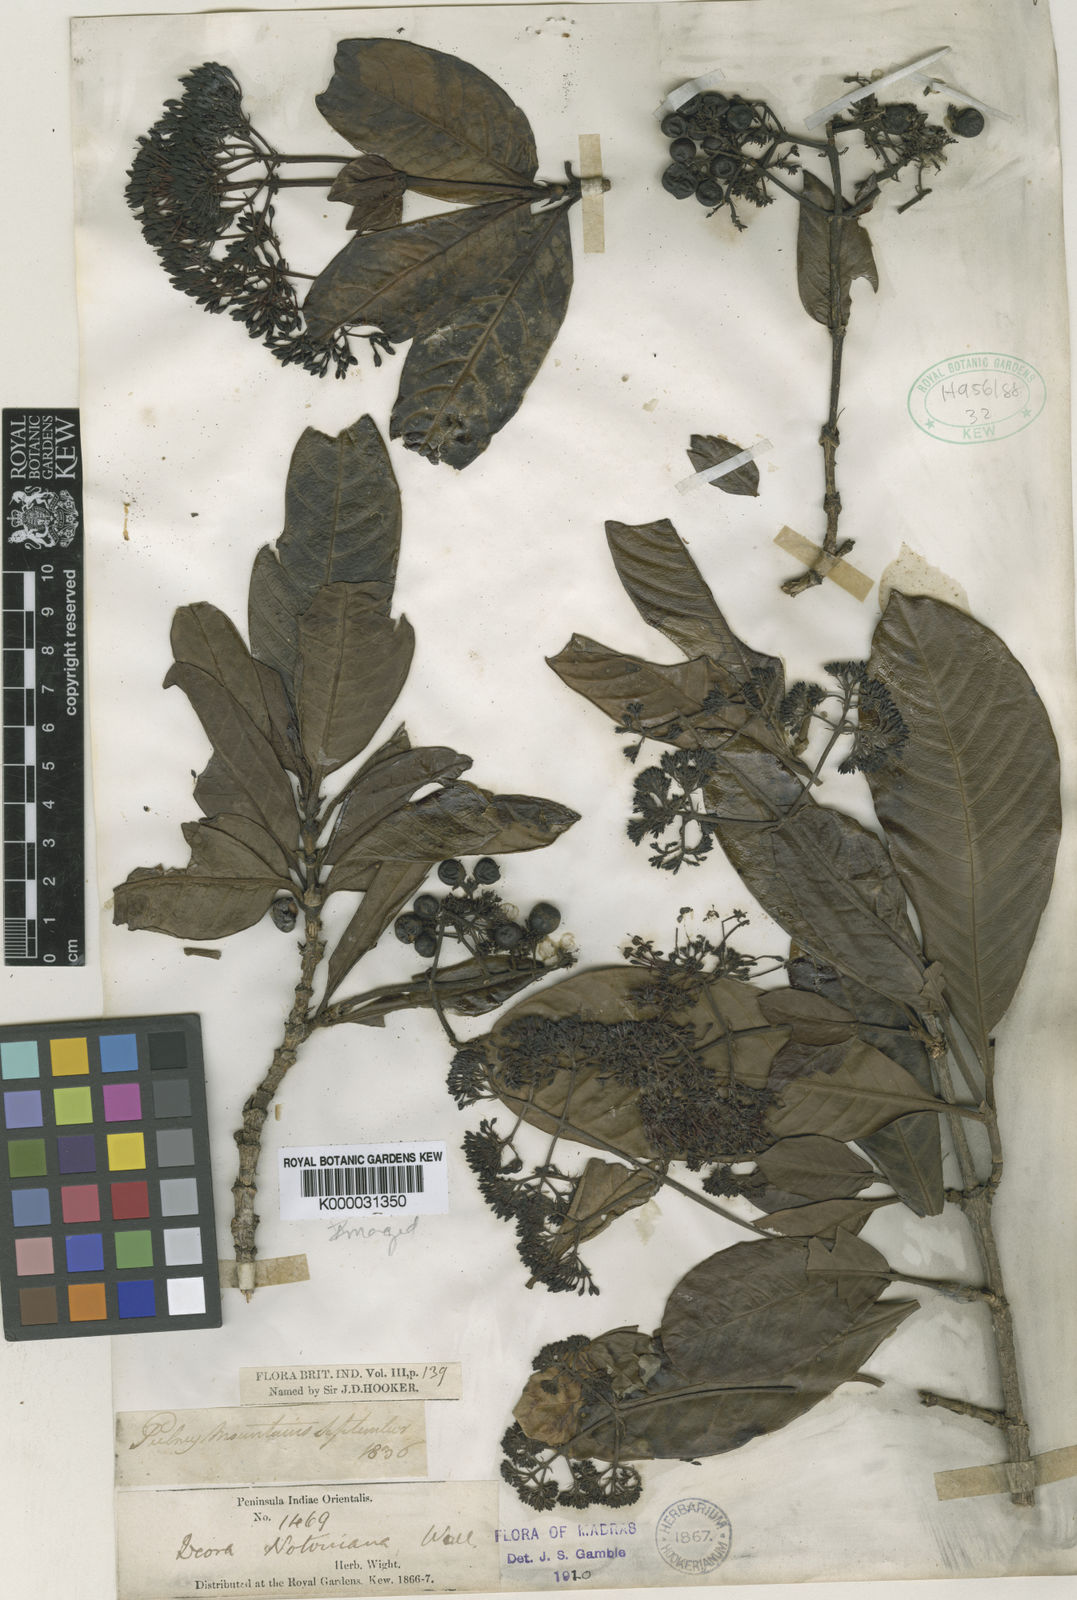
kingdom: Plantae
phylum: Tracheophyta
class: Magnoliopsida
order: Gentianales
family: Rubiaceae
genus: Ixora
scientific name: Ixora
